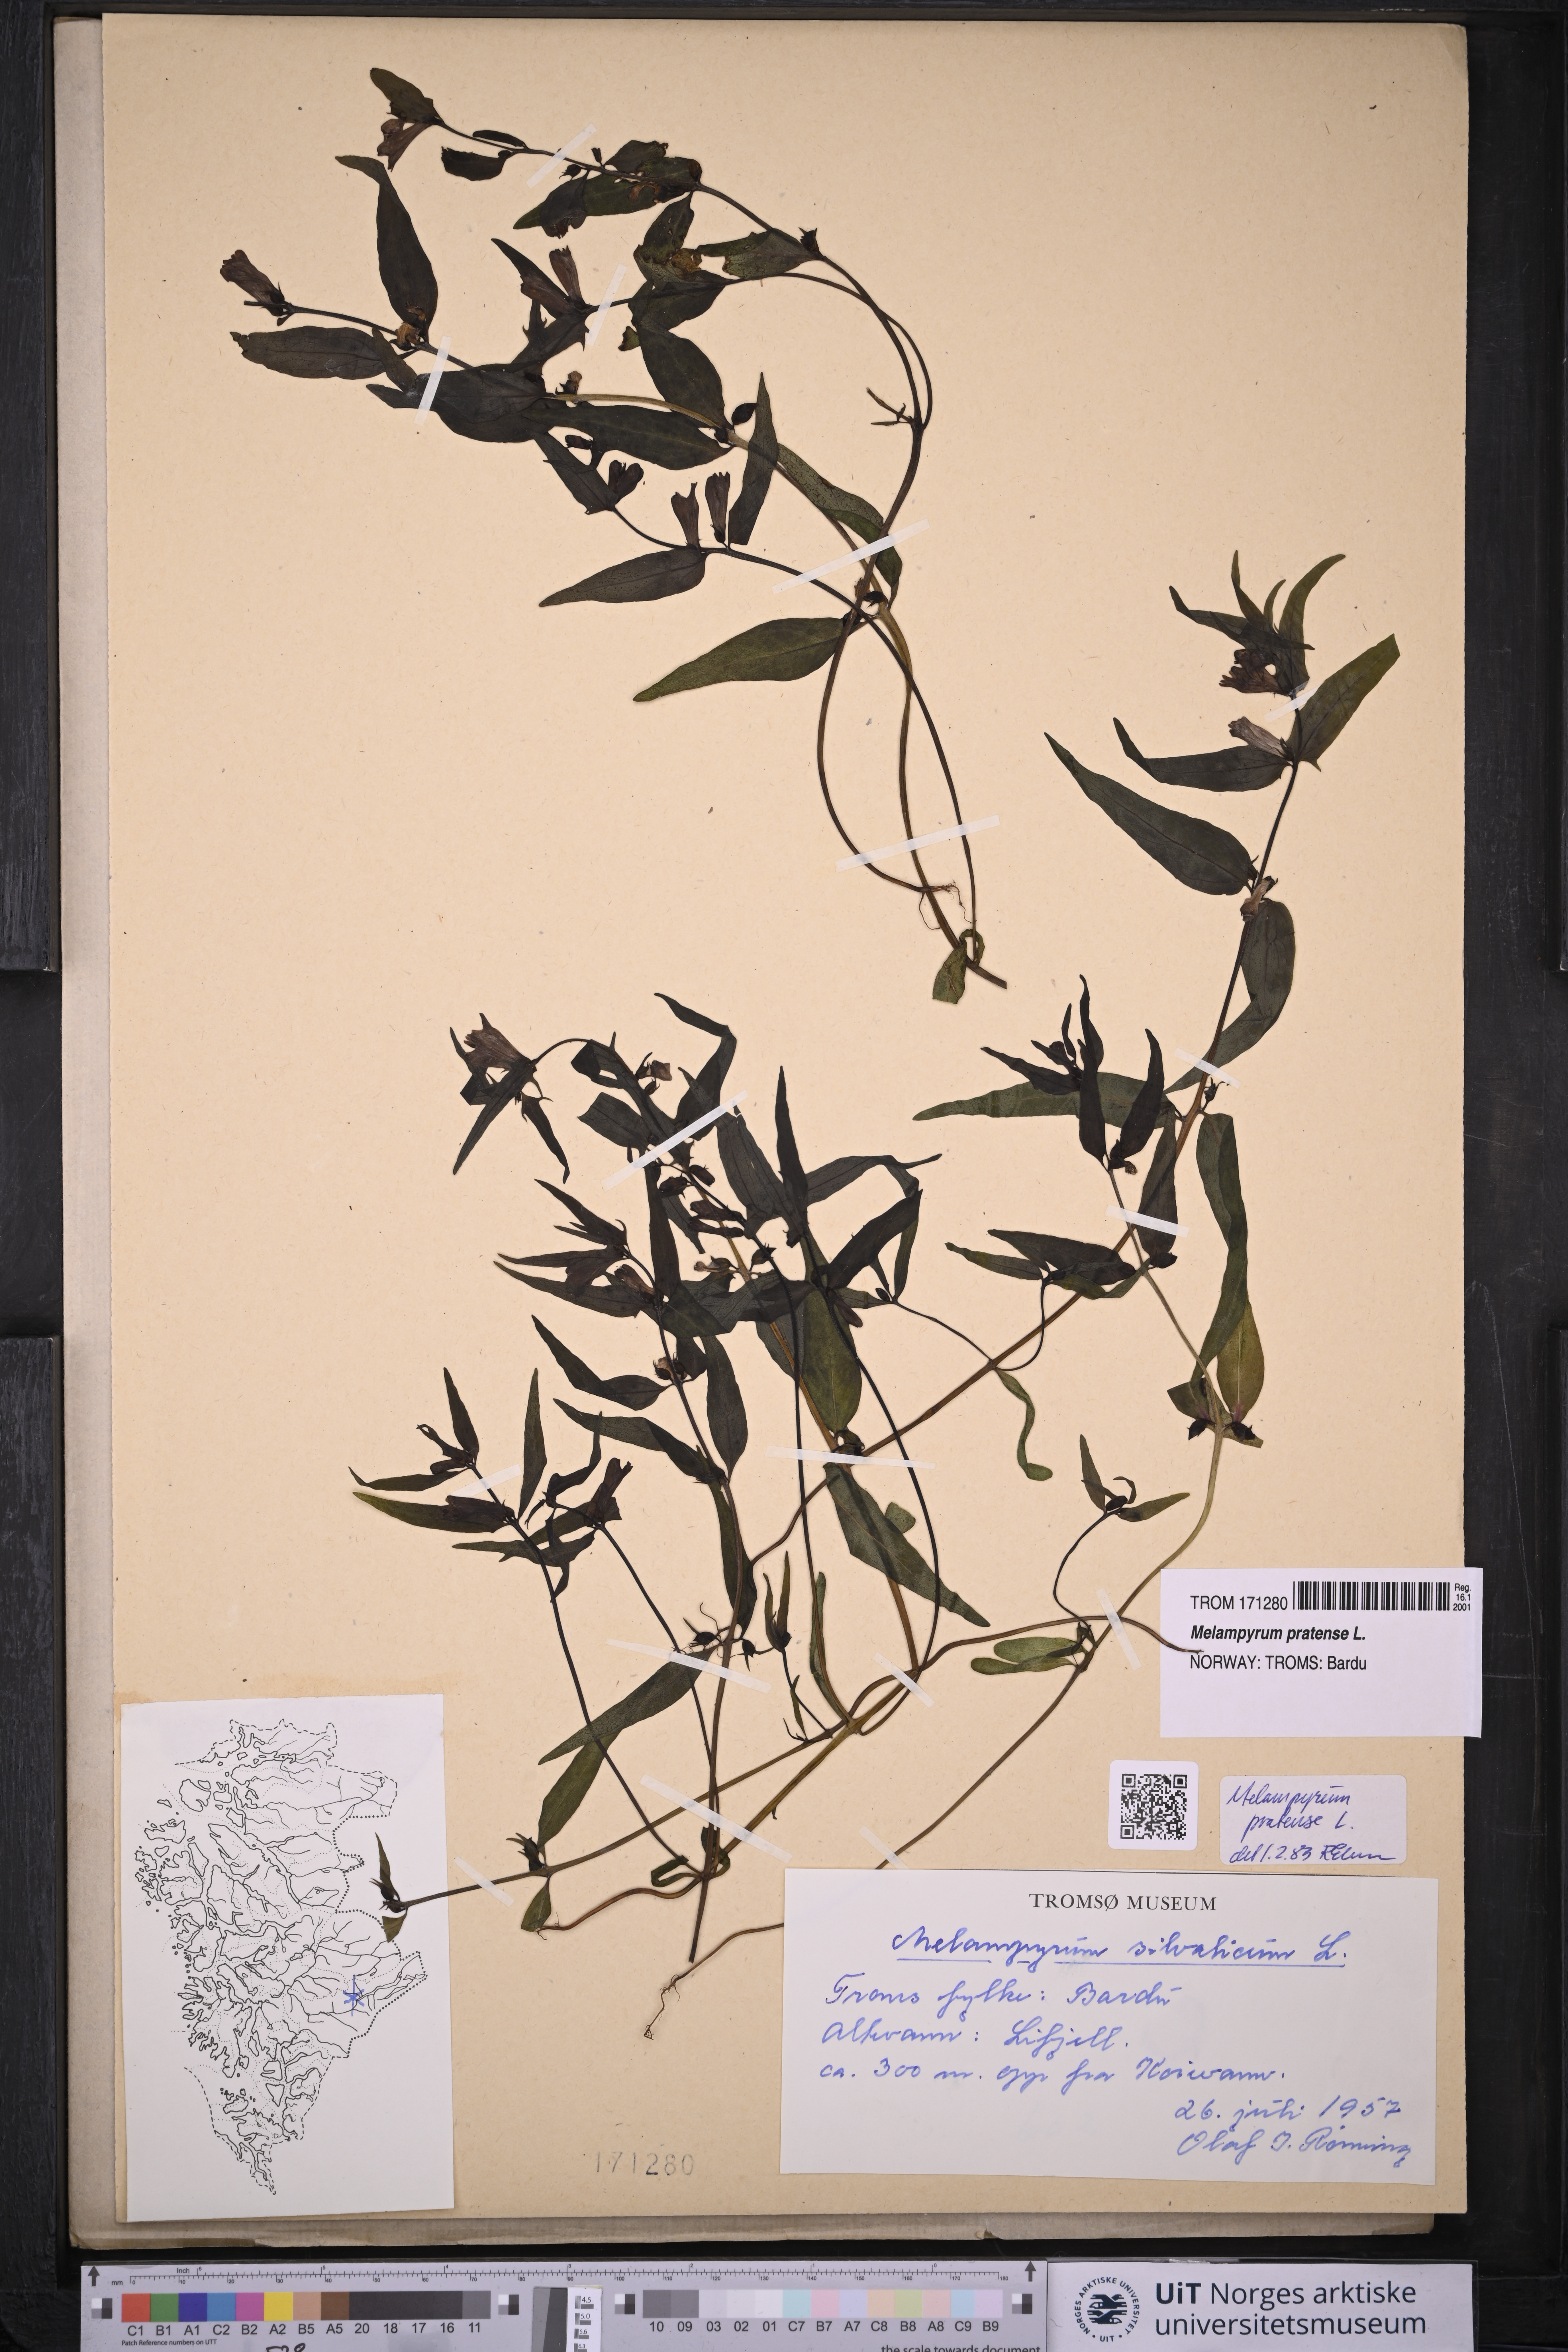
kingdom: Plantae
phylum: Tracheophyta
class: Magnoliopsida
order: Lamiales
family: Orobanchaceae
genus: Melampyrum
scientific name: Melampyrum pratense
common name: Common cow-wheat
